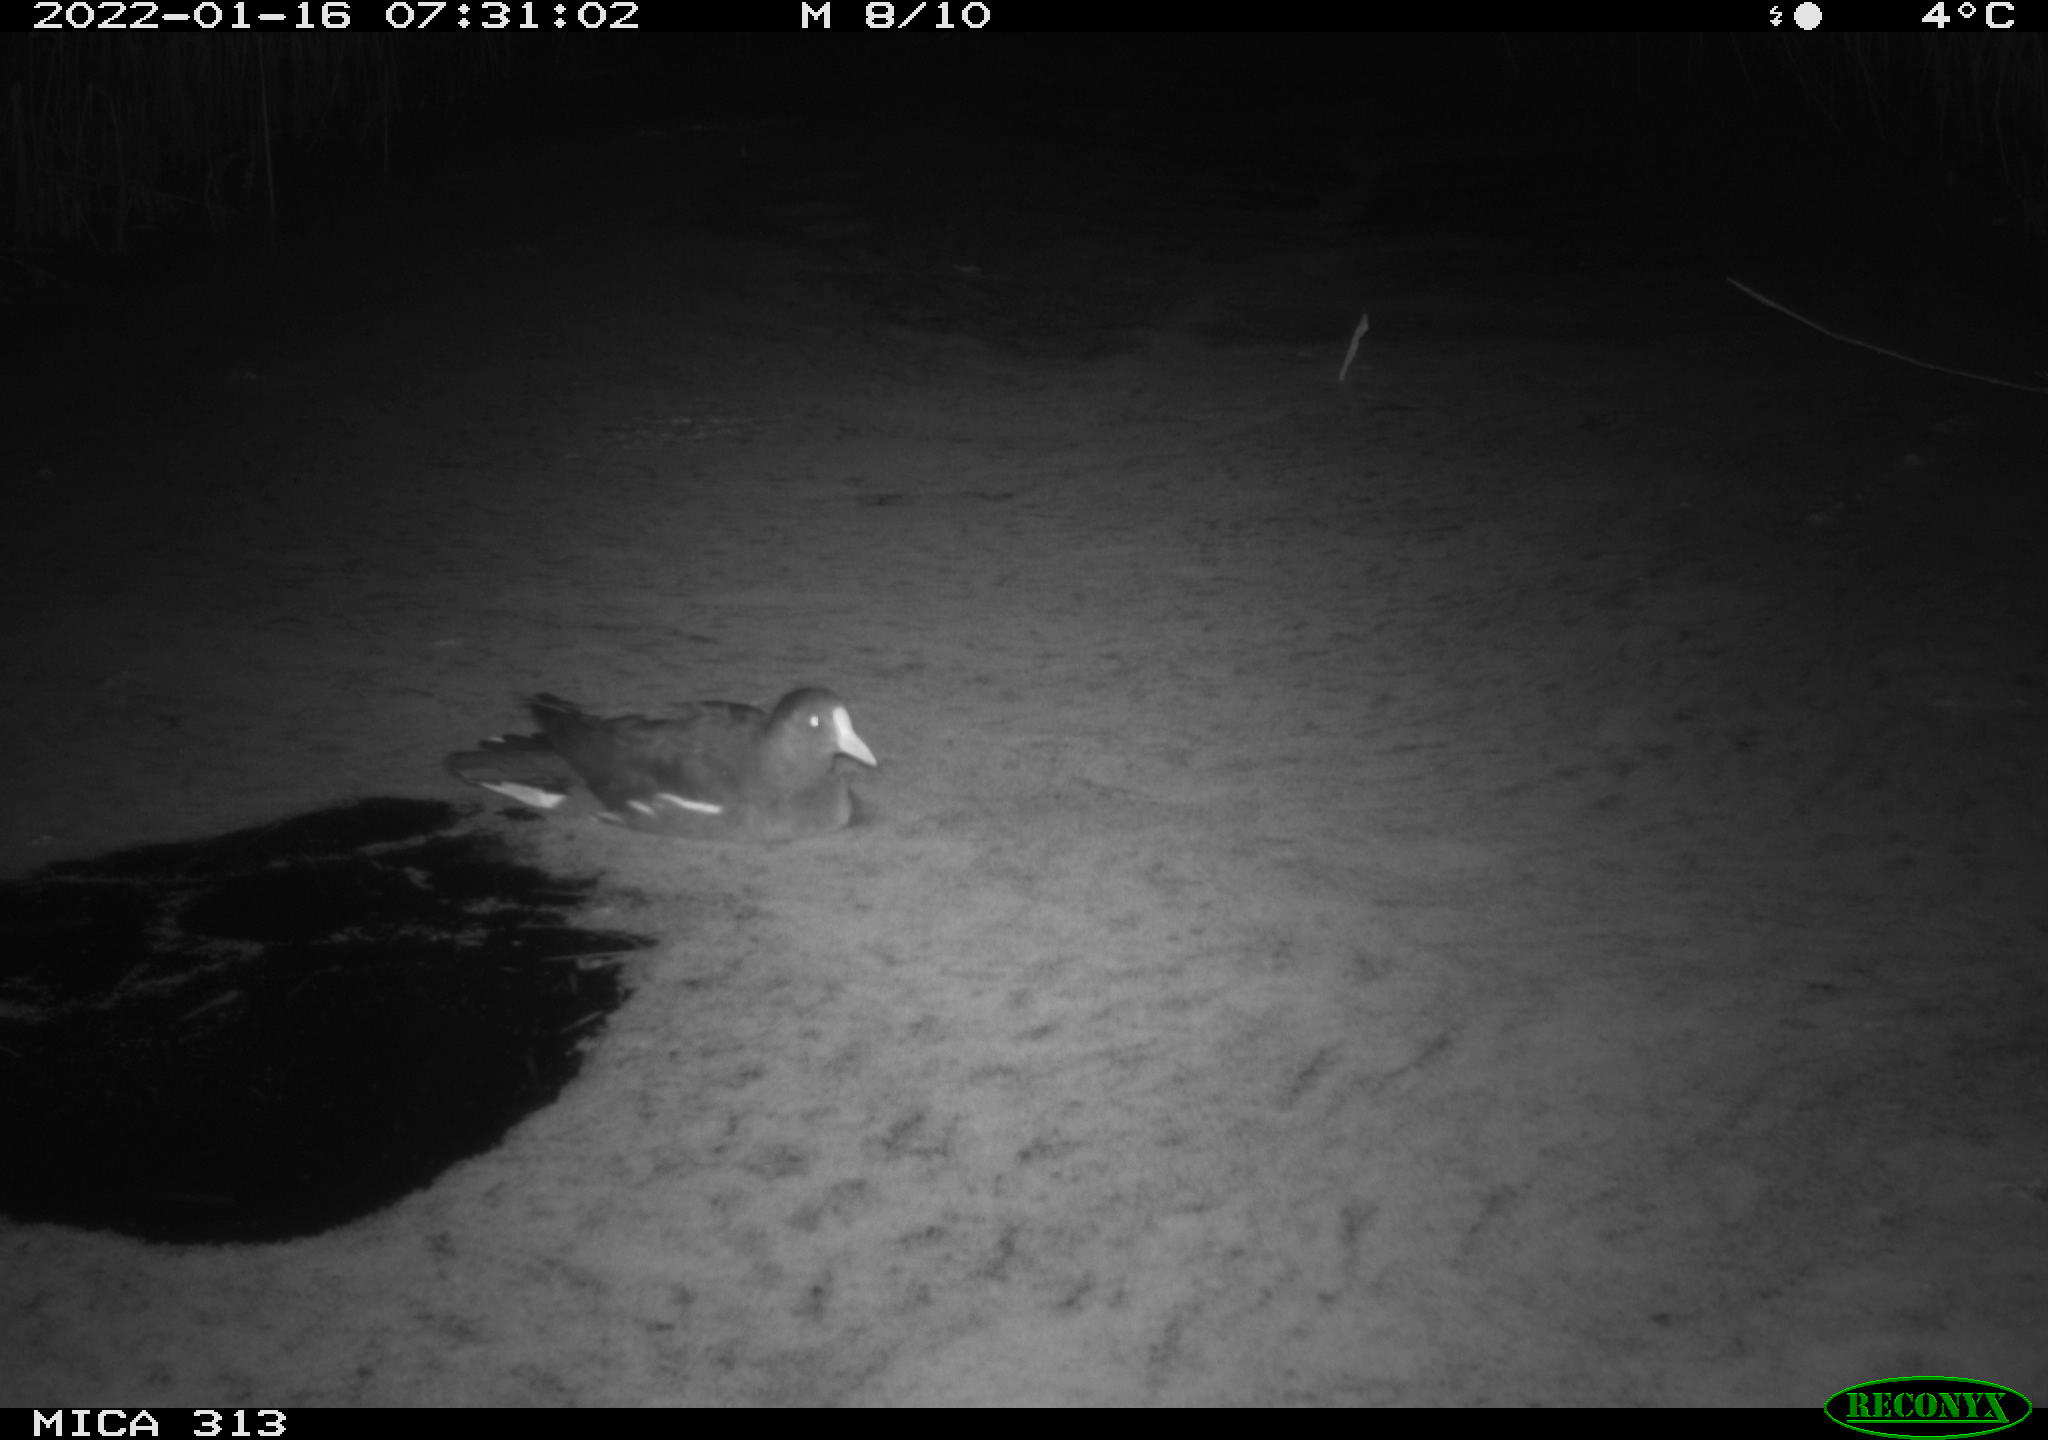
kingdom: Animalia
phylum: Chordata
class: Aves
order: Gruiformes
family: Rallidae
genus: Gallinula
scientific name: Gallinula chloropus
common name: Common moorhen
